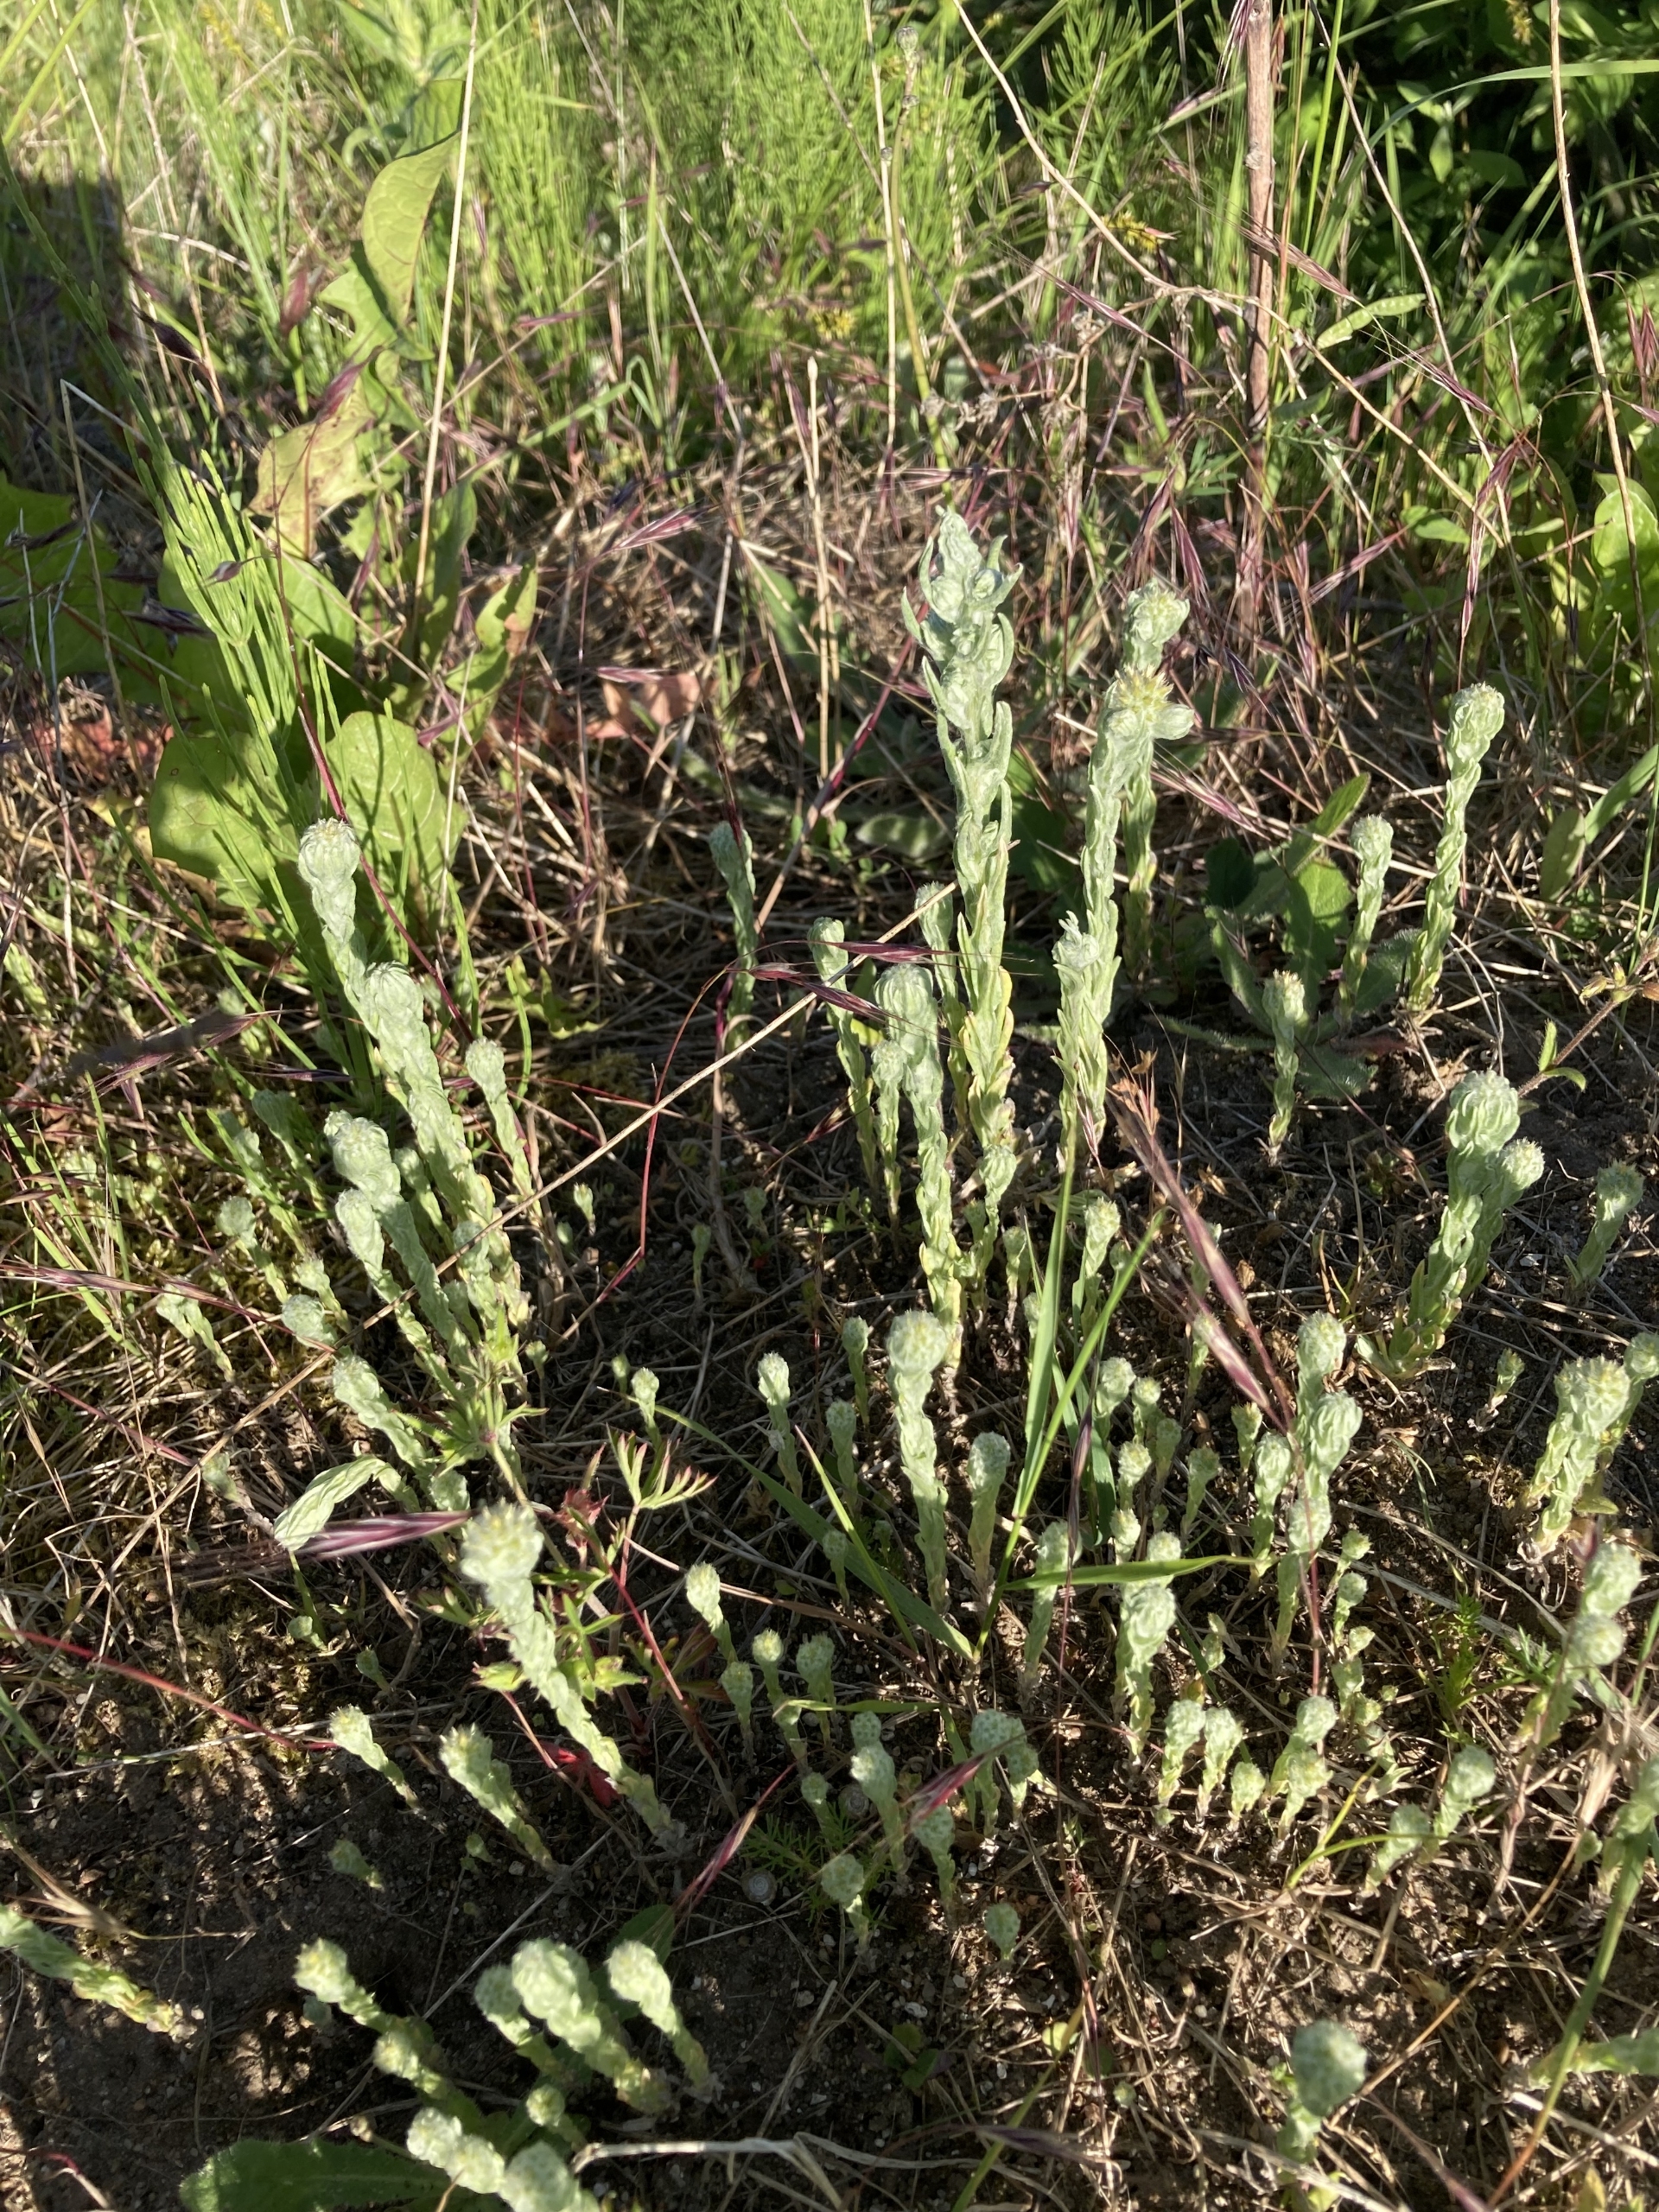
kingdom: Plantae
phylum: Tracheophyta
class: Magnoliopsida
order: Asterales
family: Asteraceae
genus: Filago
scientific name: Filago germanica
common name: Kugle-museurt
